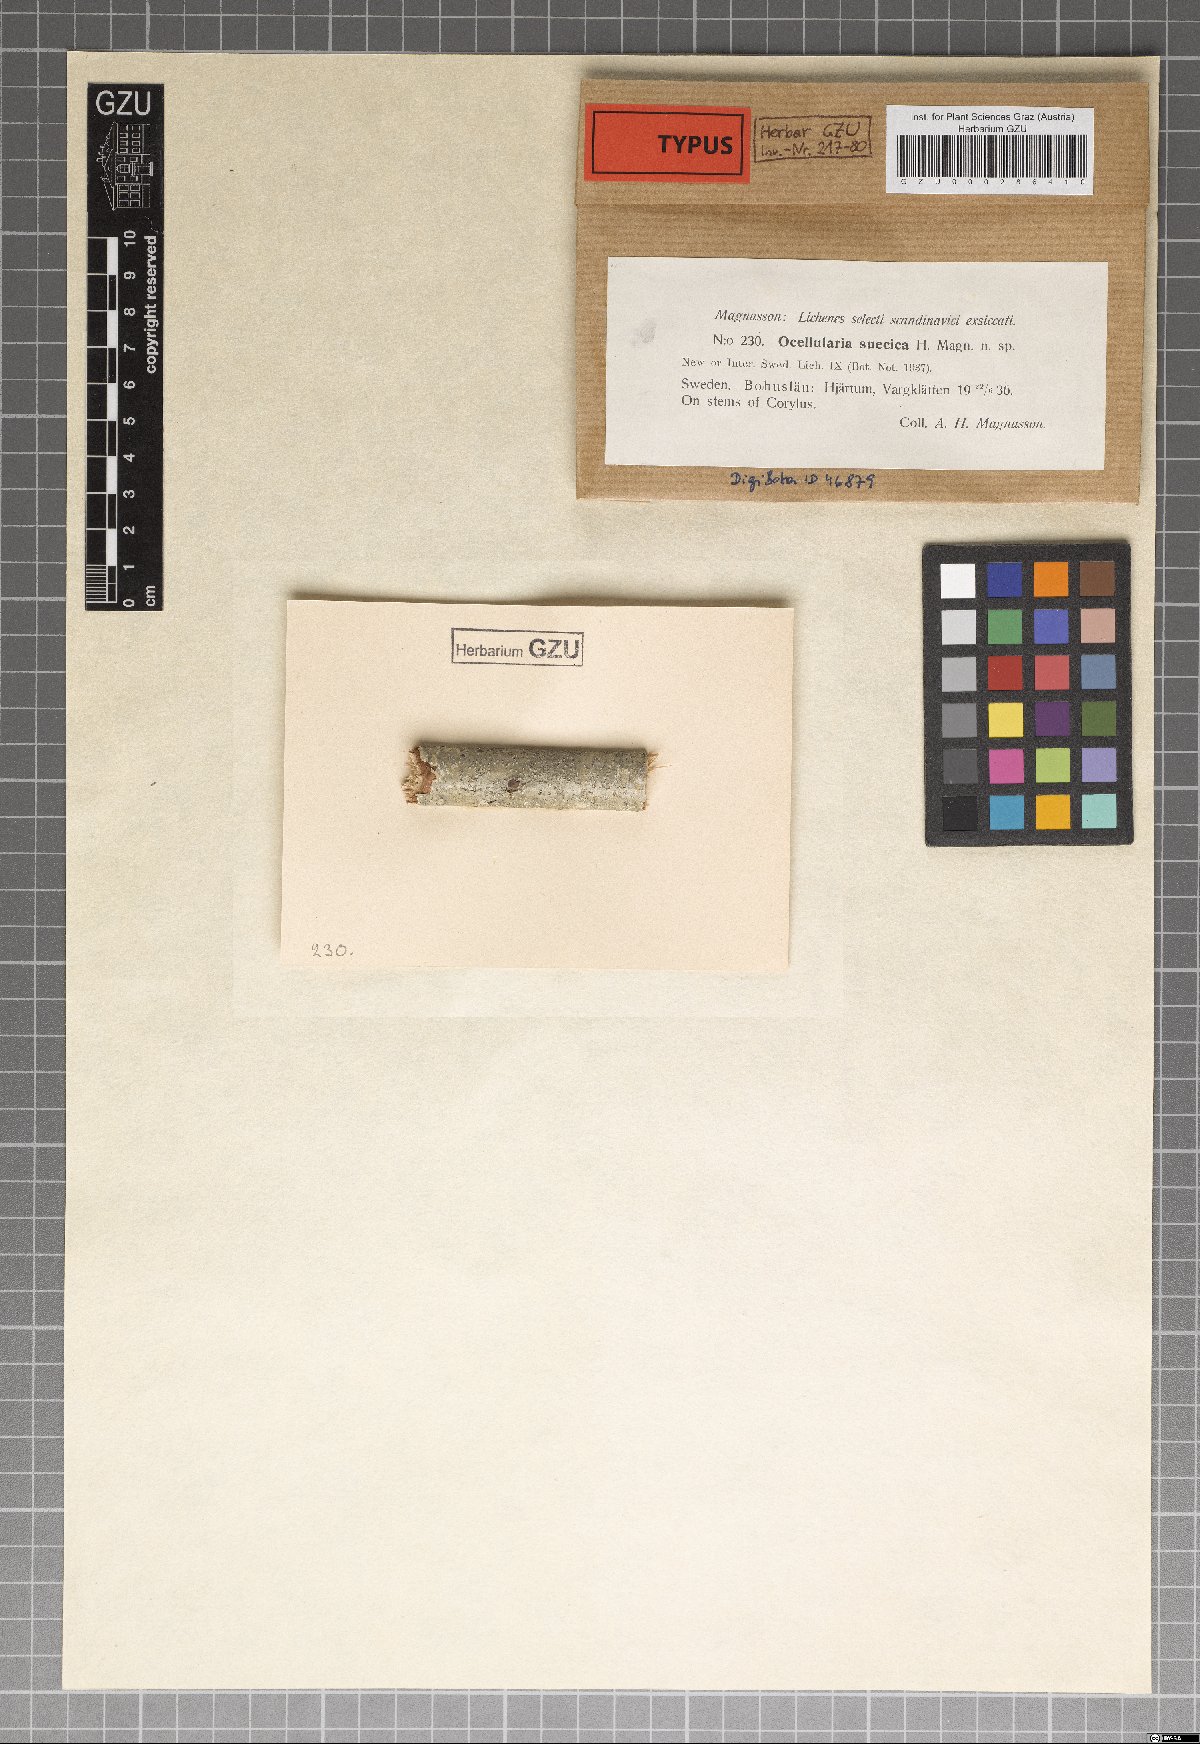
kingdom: Fungi
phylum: Ascomycota
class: Lecanoromycetes
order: Ostropales
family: Graphidaceae
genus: Thelotrema
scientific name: Thelotrema suecicum
